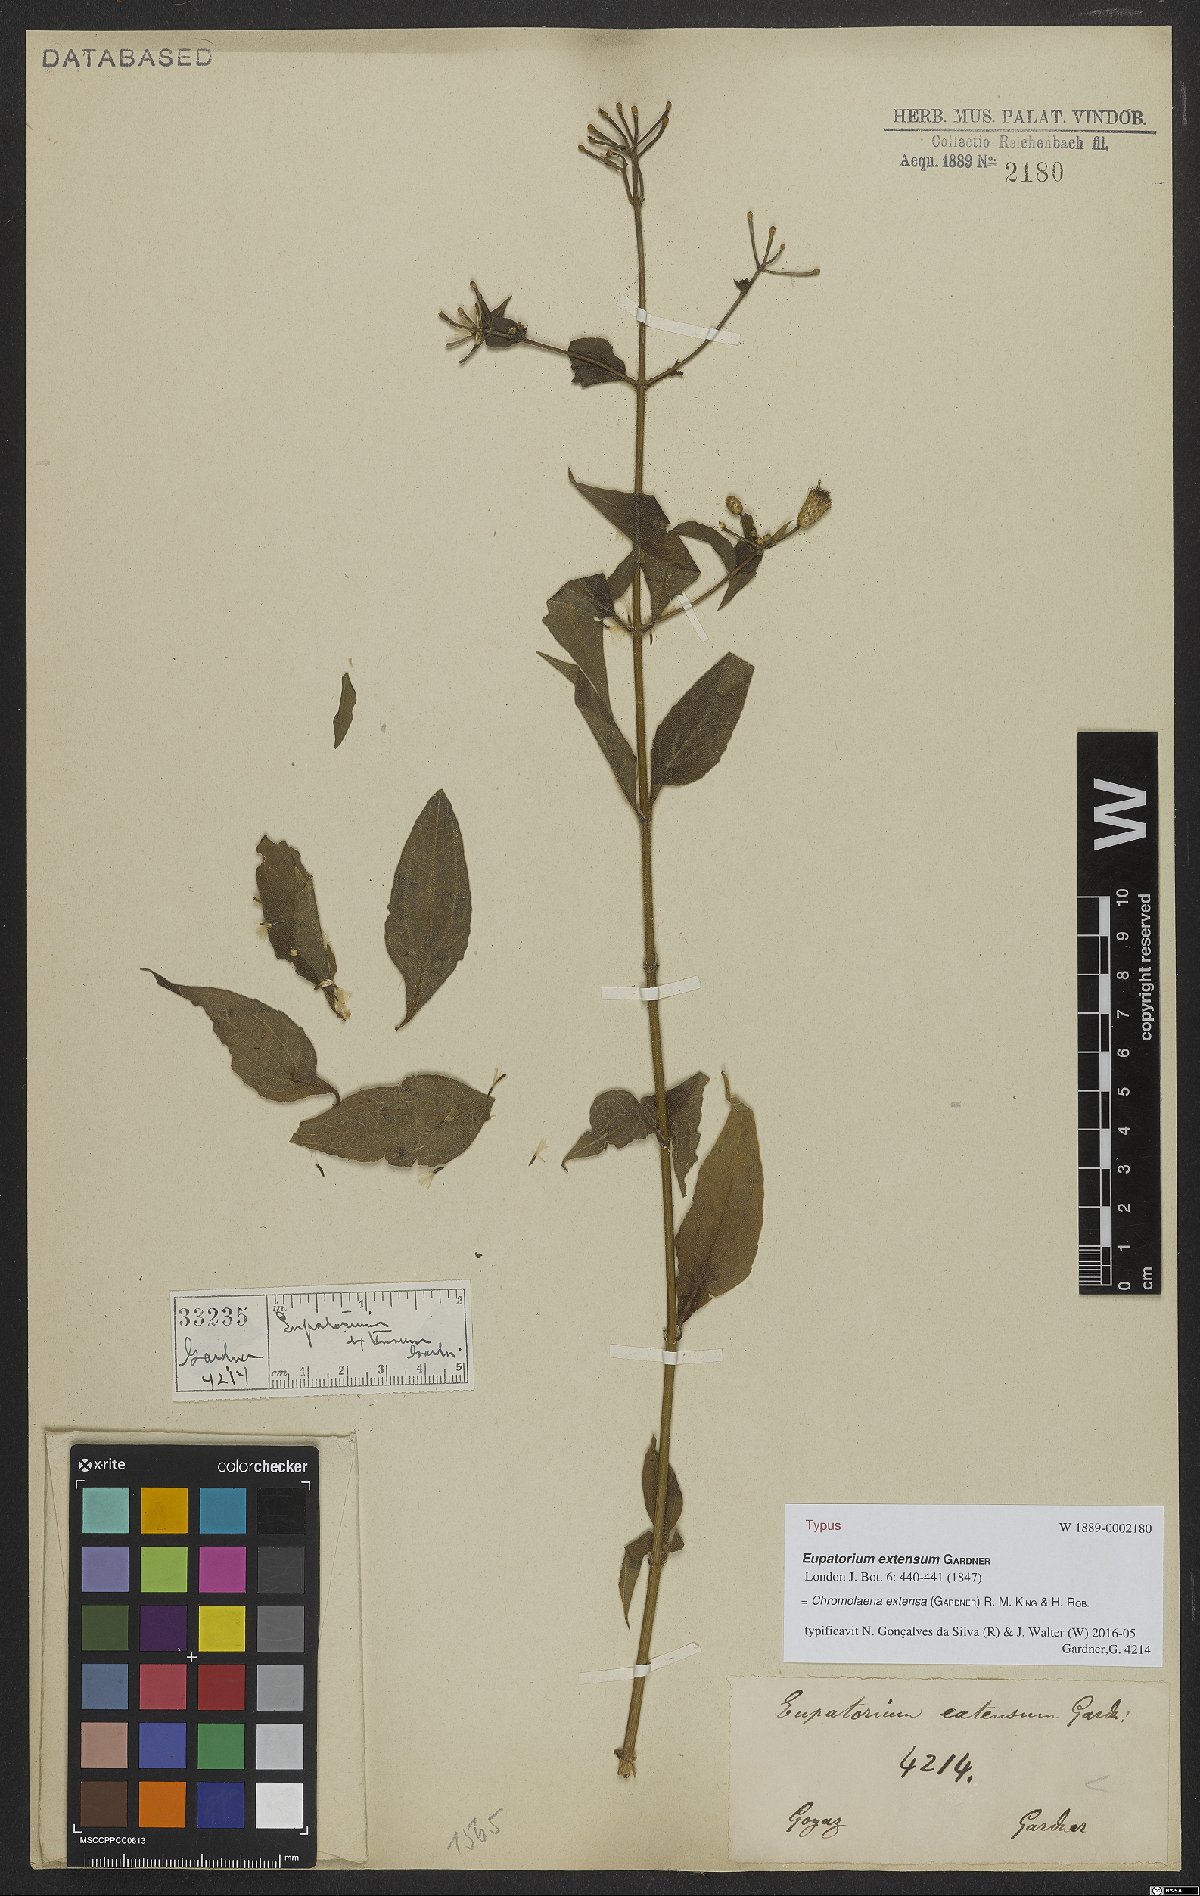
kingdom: Plantae
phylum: Tracheophyta
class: Magnoliopsida
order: Asterales
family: Asteraceae
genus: Chromolaena
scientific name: Chromolaena extensa
